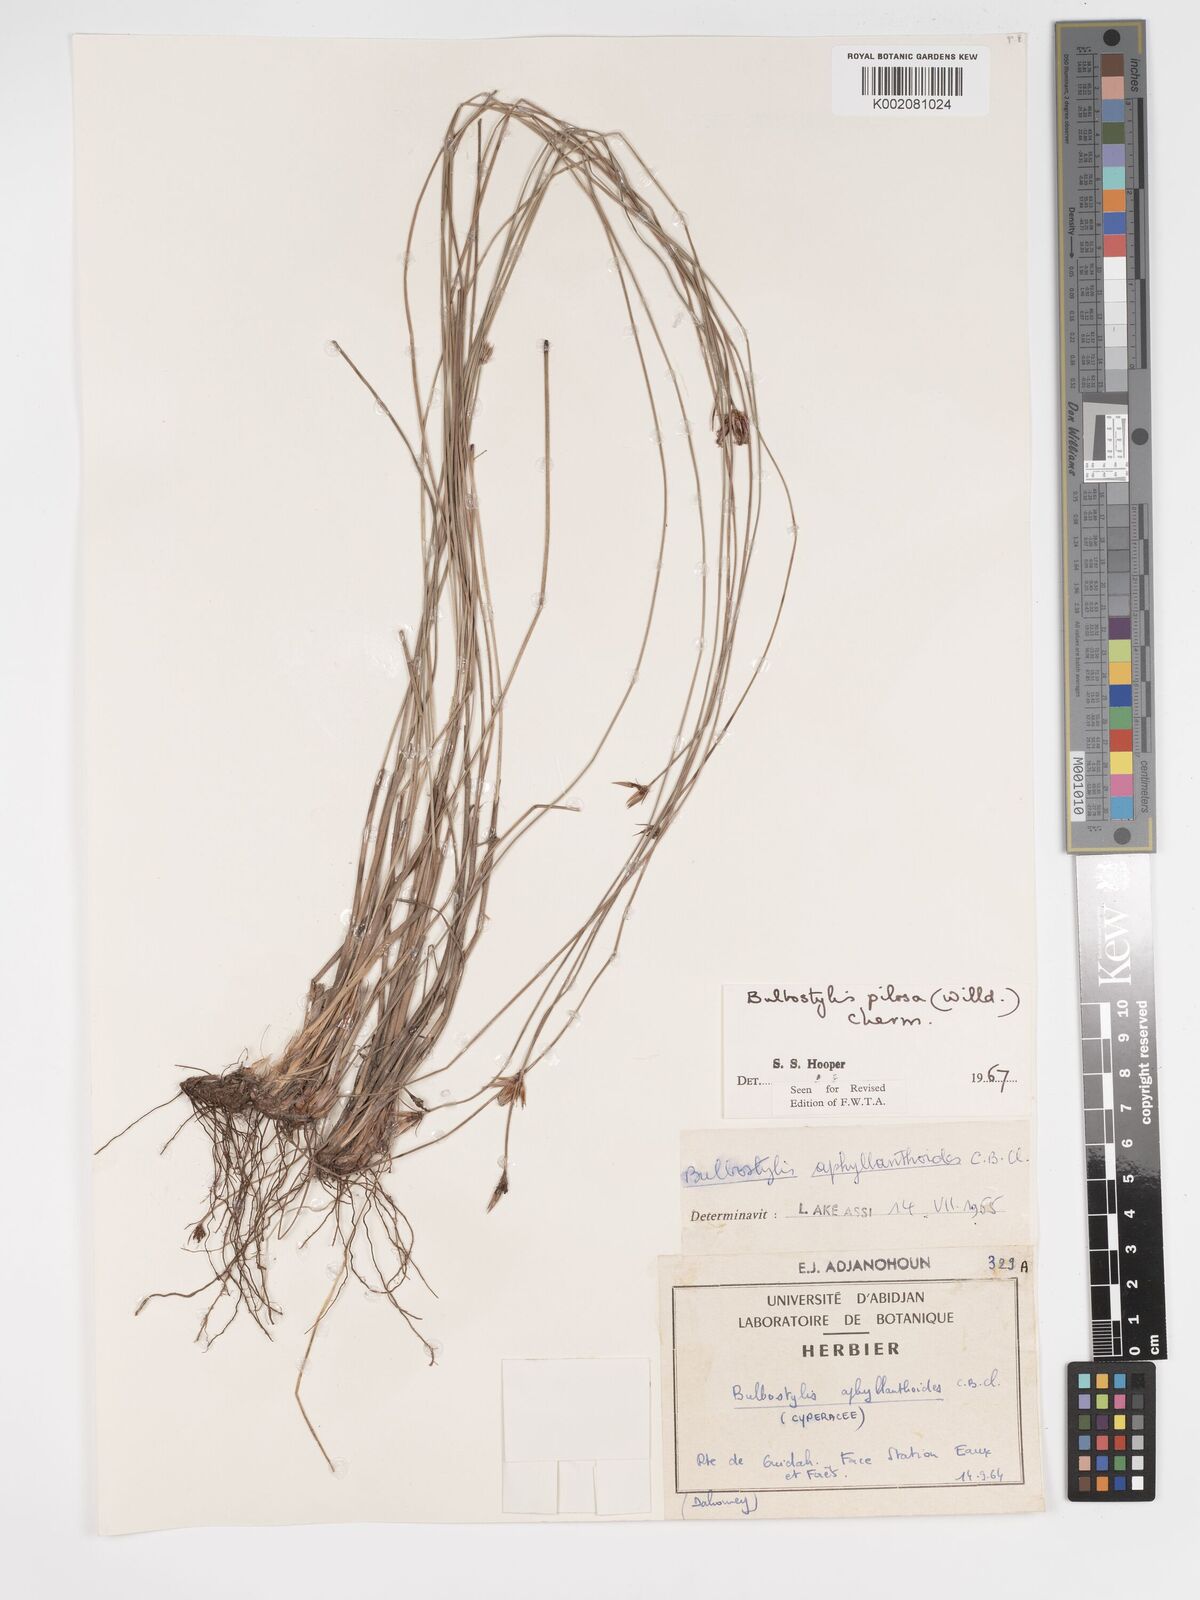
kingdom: Plantae
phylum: Tracheophyta
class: Liliopsida
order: Poales
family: Cyperaceae
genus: Bulbostylis
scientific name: Bulbostylis pilosa
